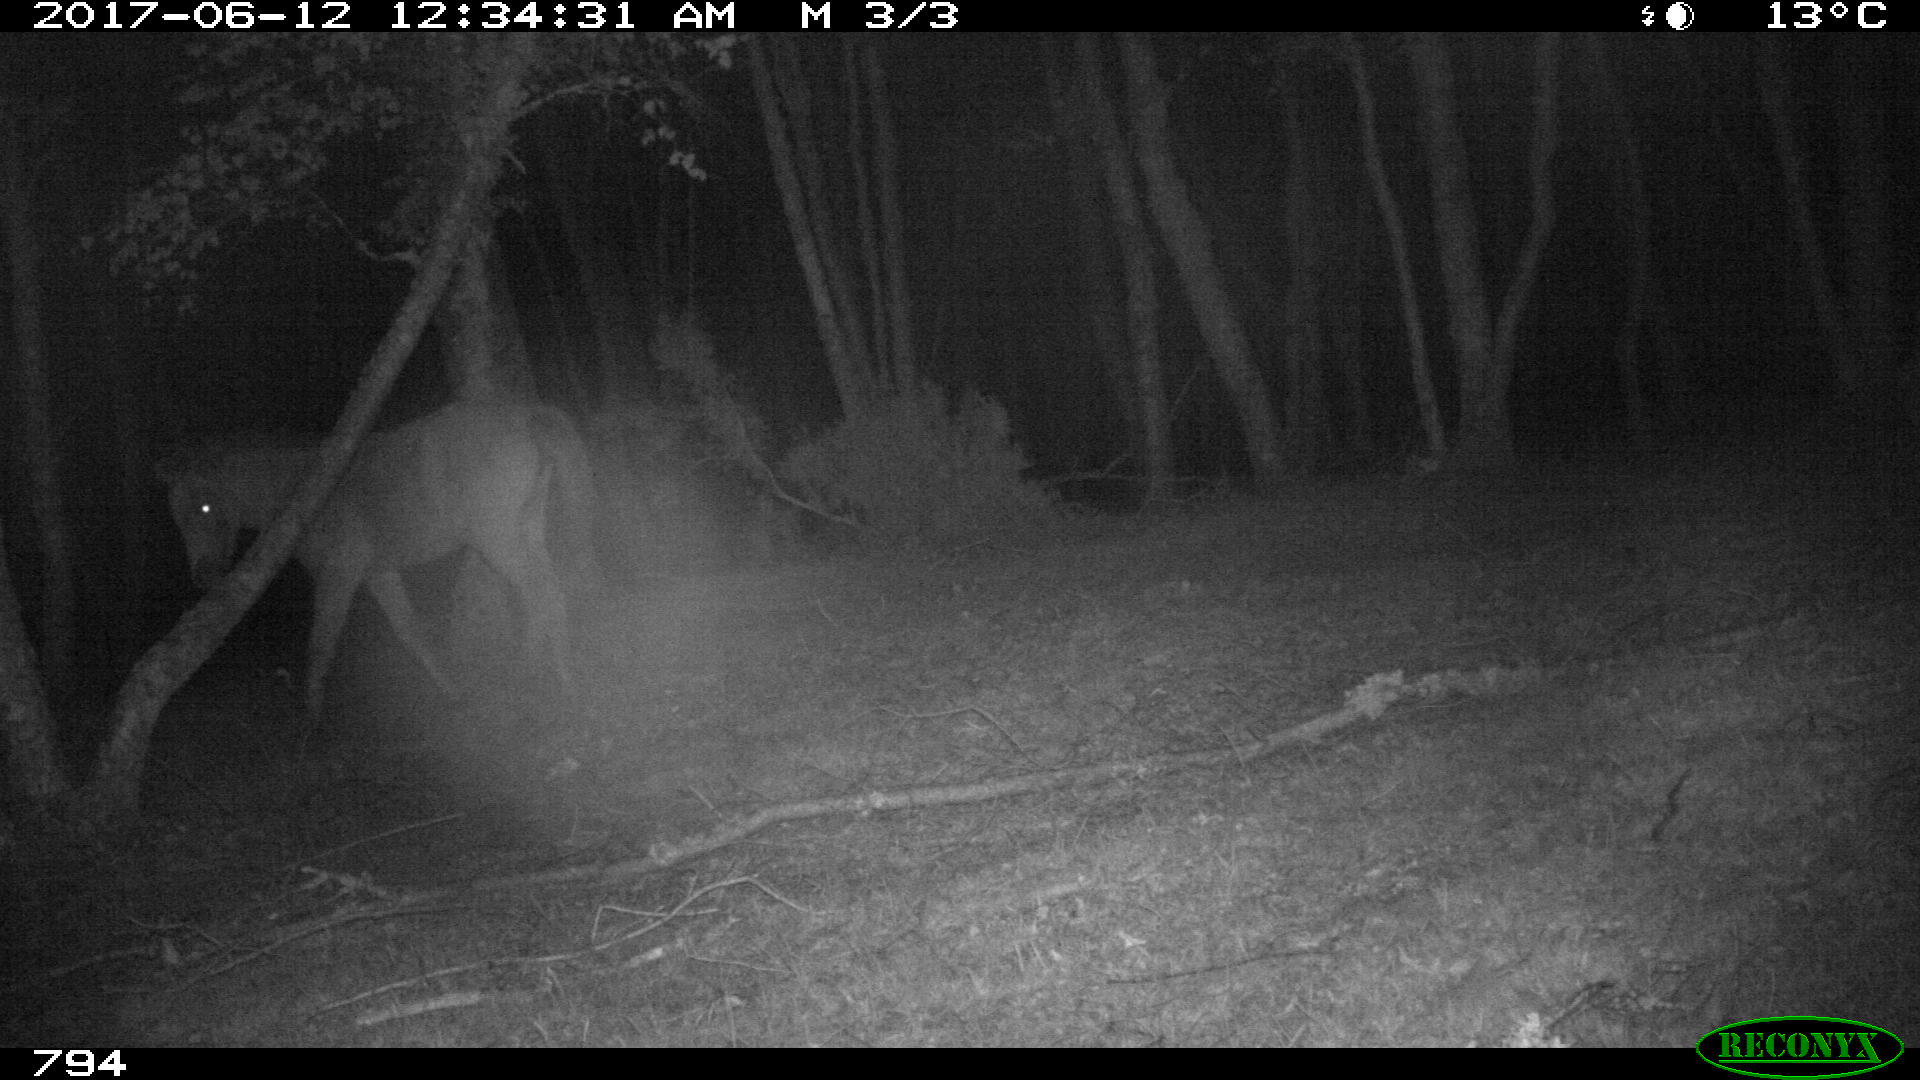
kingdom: Animalia
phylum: Chordata
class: Mammalia
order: Perissodactyla
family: Equidae
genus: Equus
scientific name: Equus caballus
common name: Horse
